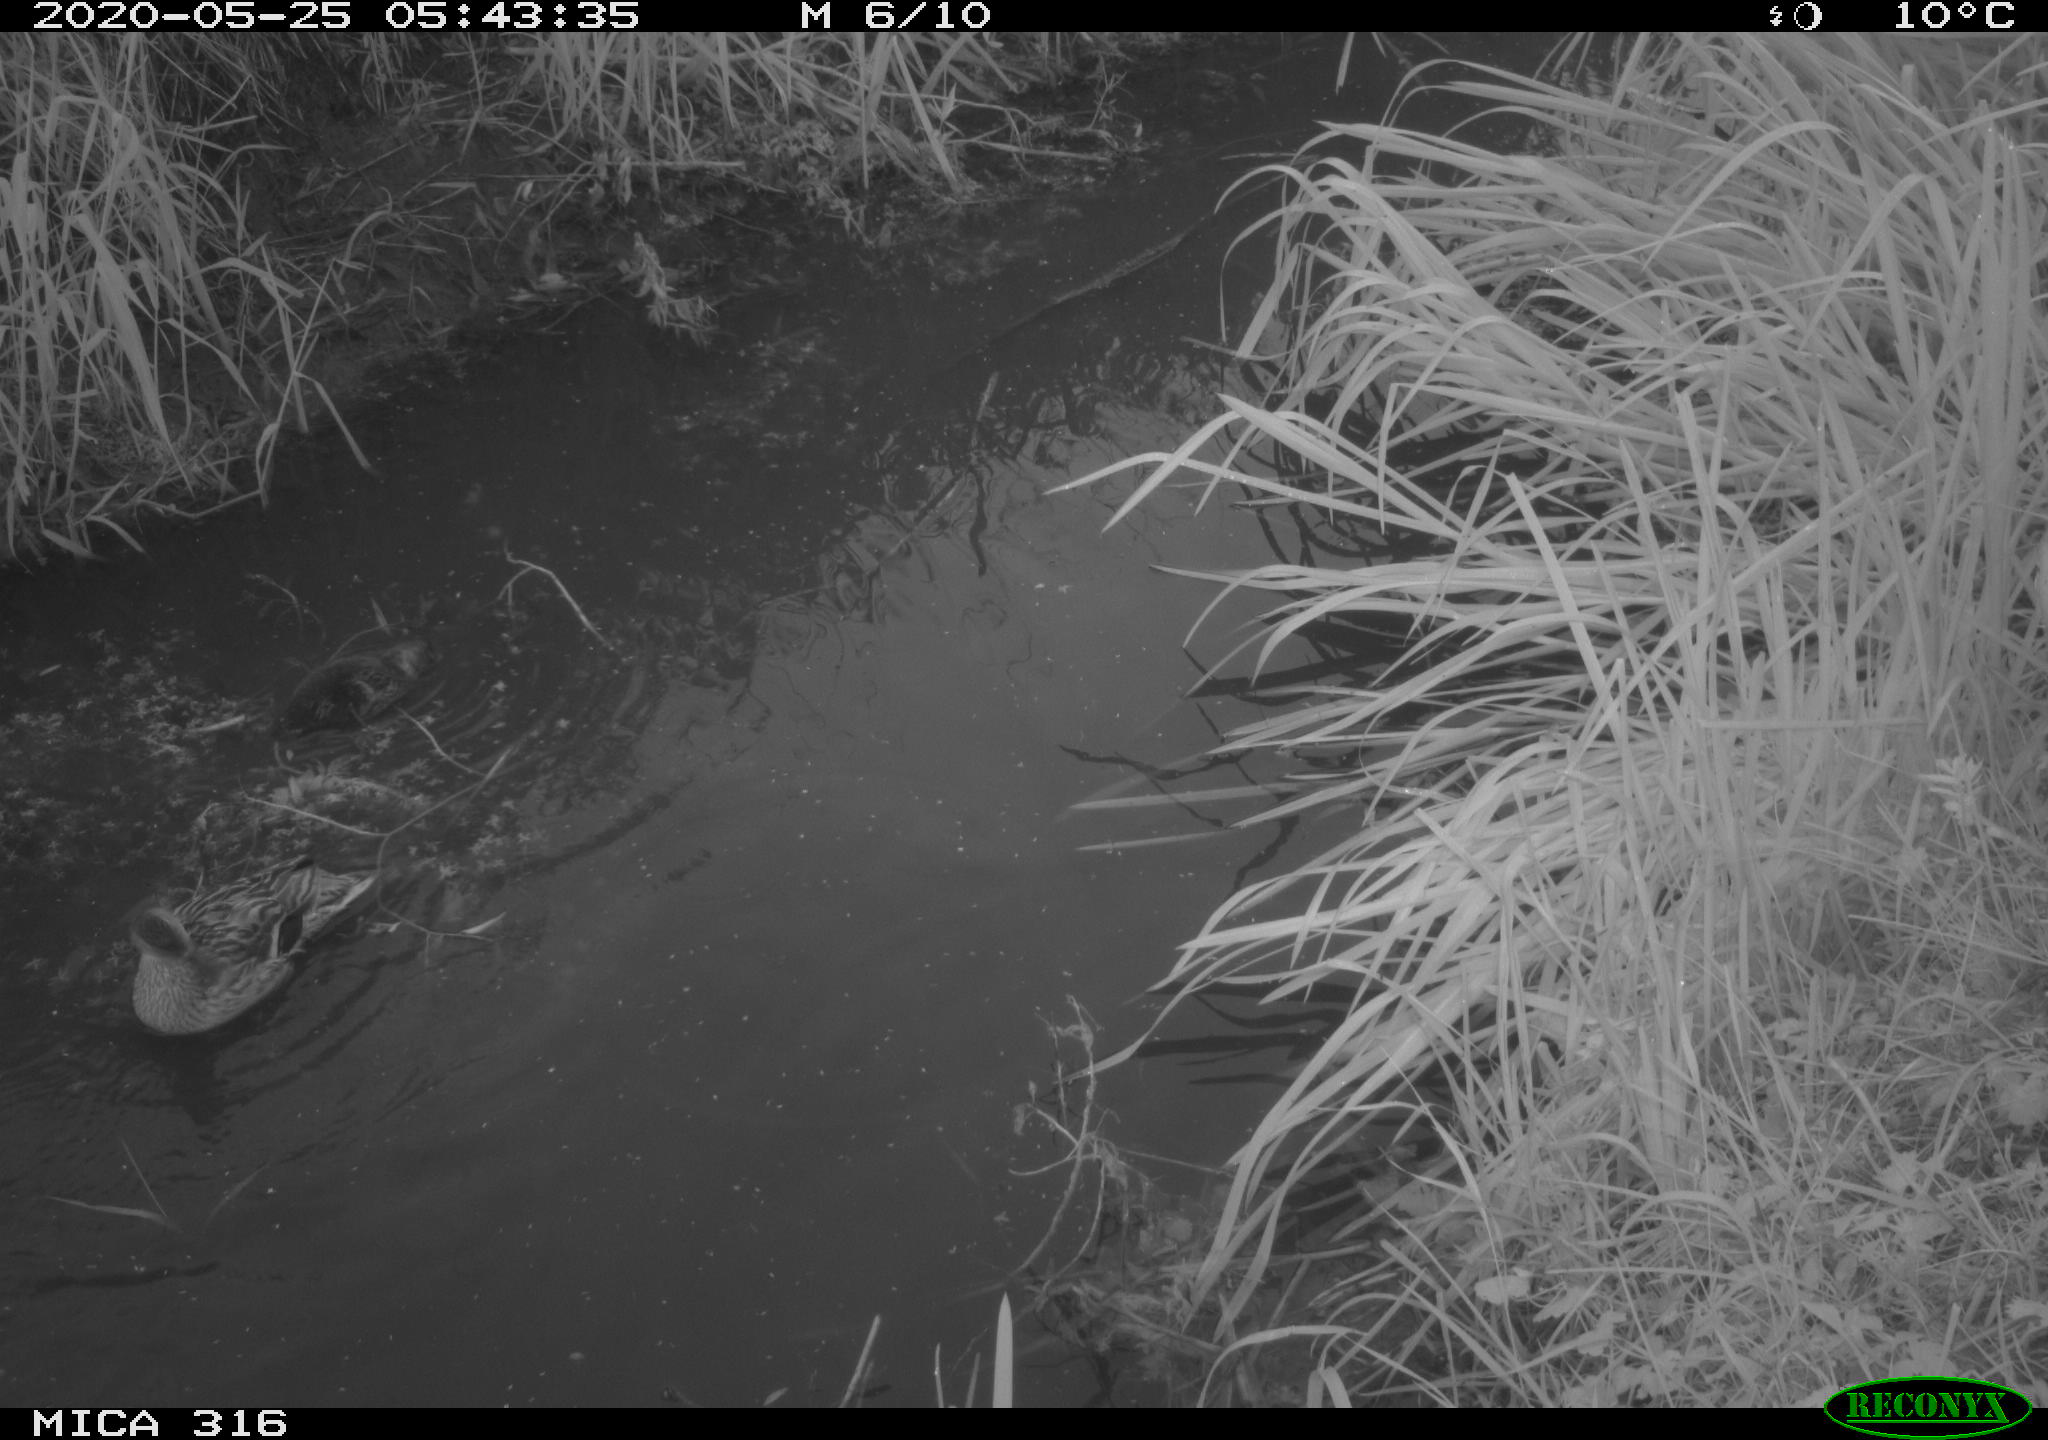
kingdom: Animalia
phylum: Chordata
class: Aves
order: Anseriformes
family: Anatidae
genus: Anas
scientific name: Anas platyrhynchos
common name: Mallard
